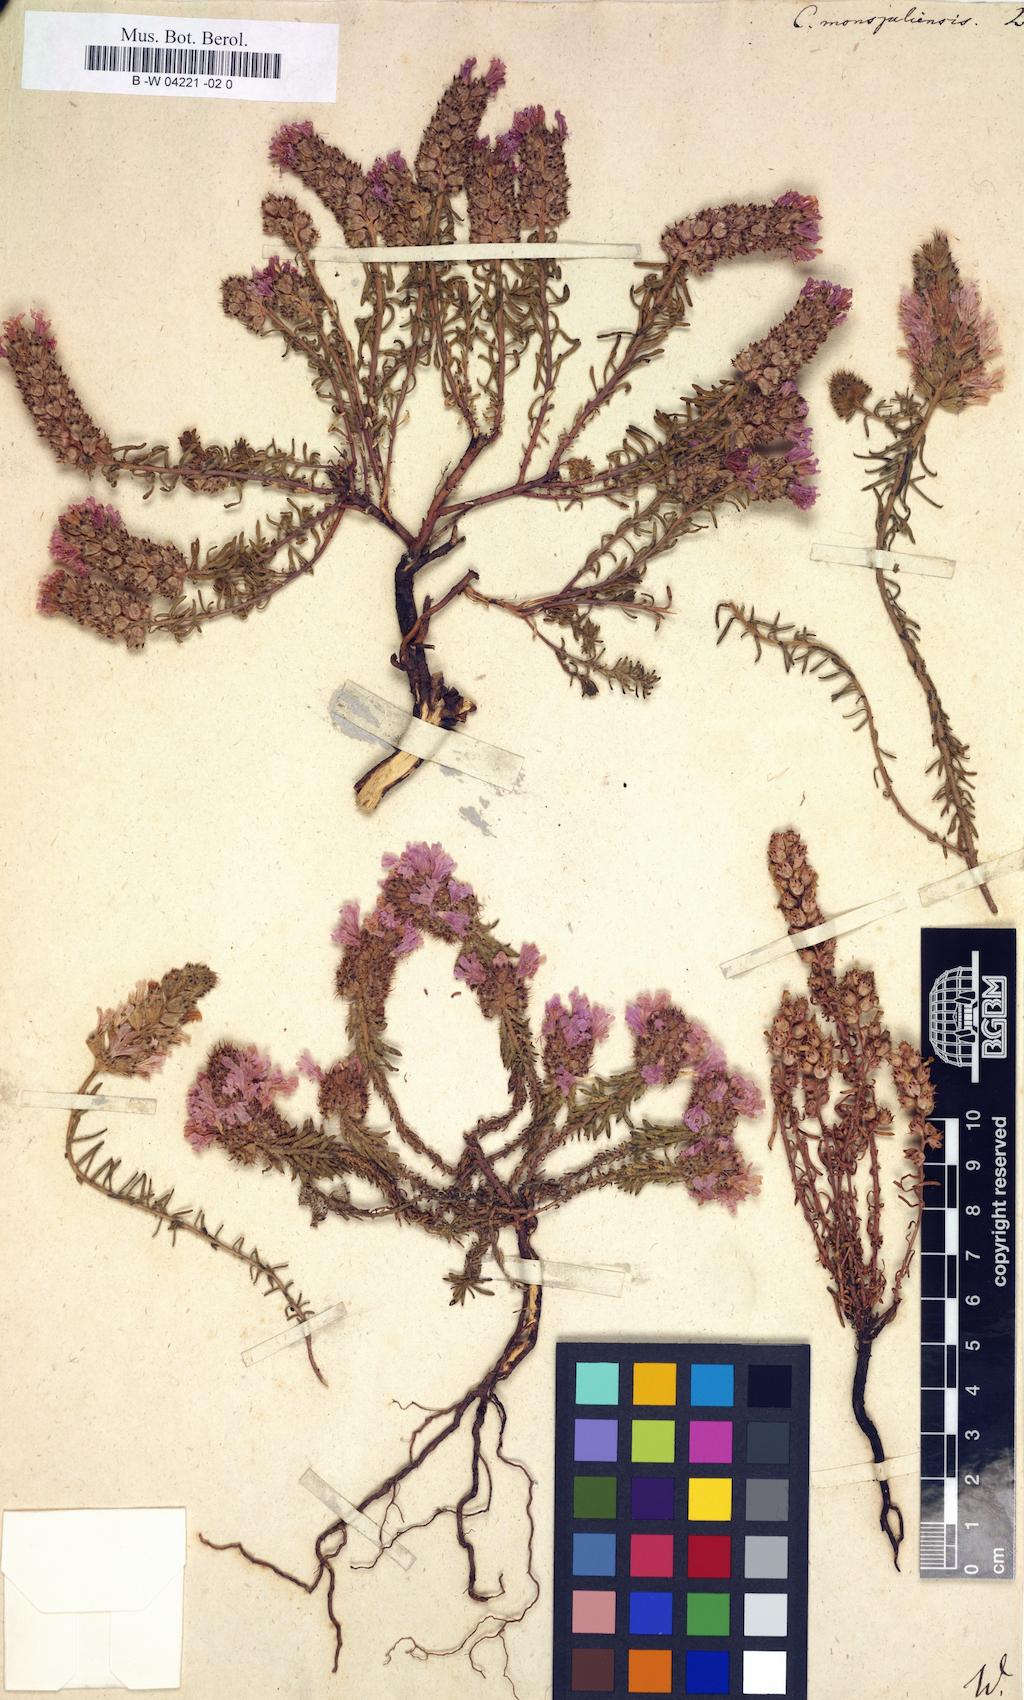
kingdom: Plantae
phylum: Tracheophyta
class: Magnoliopsida
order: Ericales
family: Primulaceae
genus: Coris
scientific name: Coris monspeliensis
